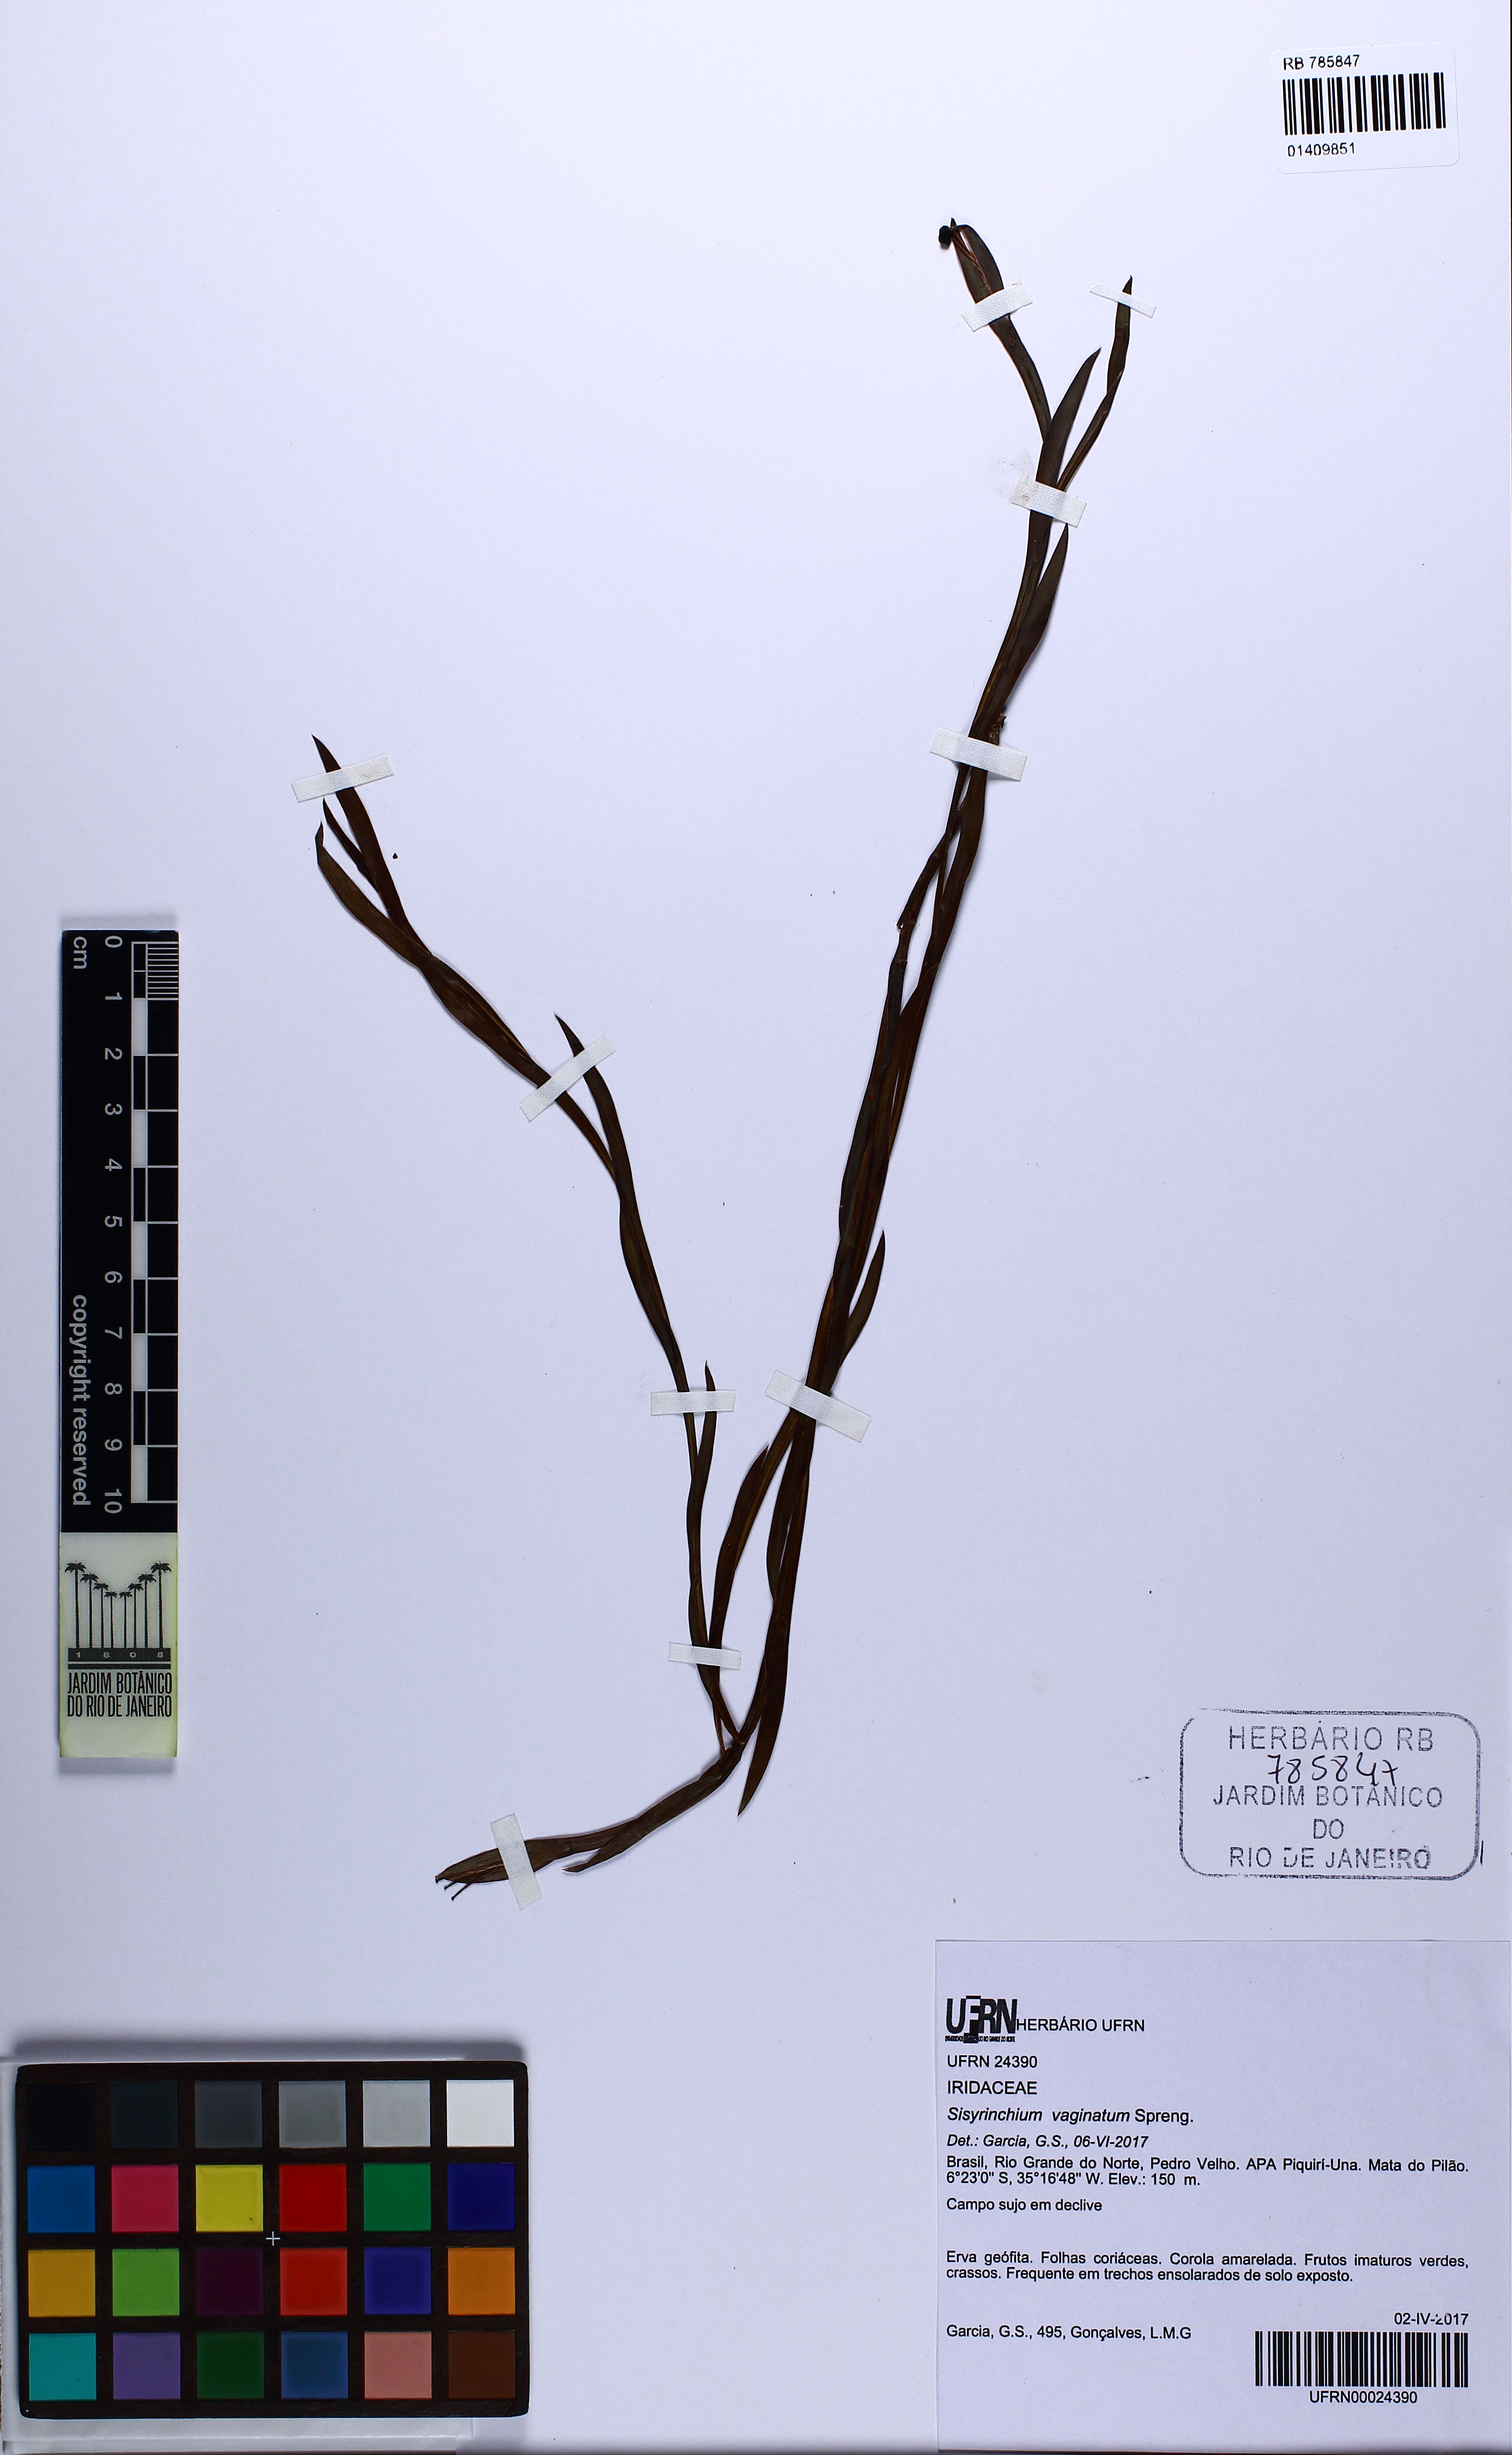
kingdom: Plantae
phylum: Tracheophyta
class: Liliopsida
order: Asparagales
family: Iridaceae
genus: Sisyrinchium
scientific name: Sisyrinchium vaginatum
